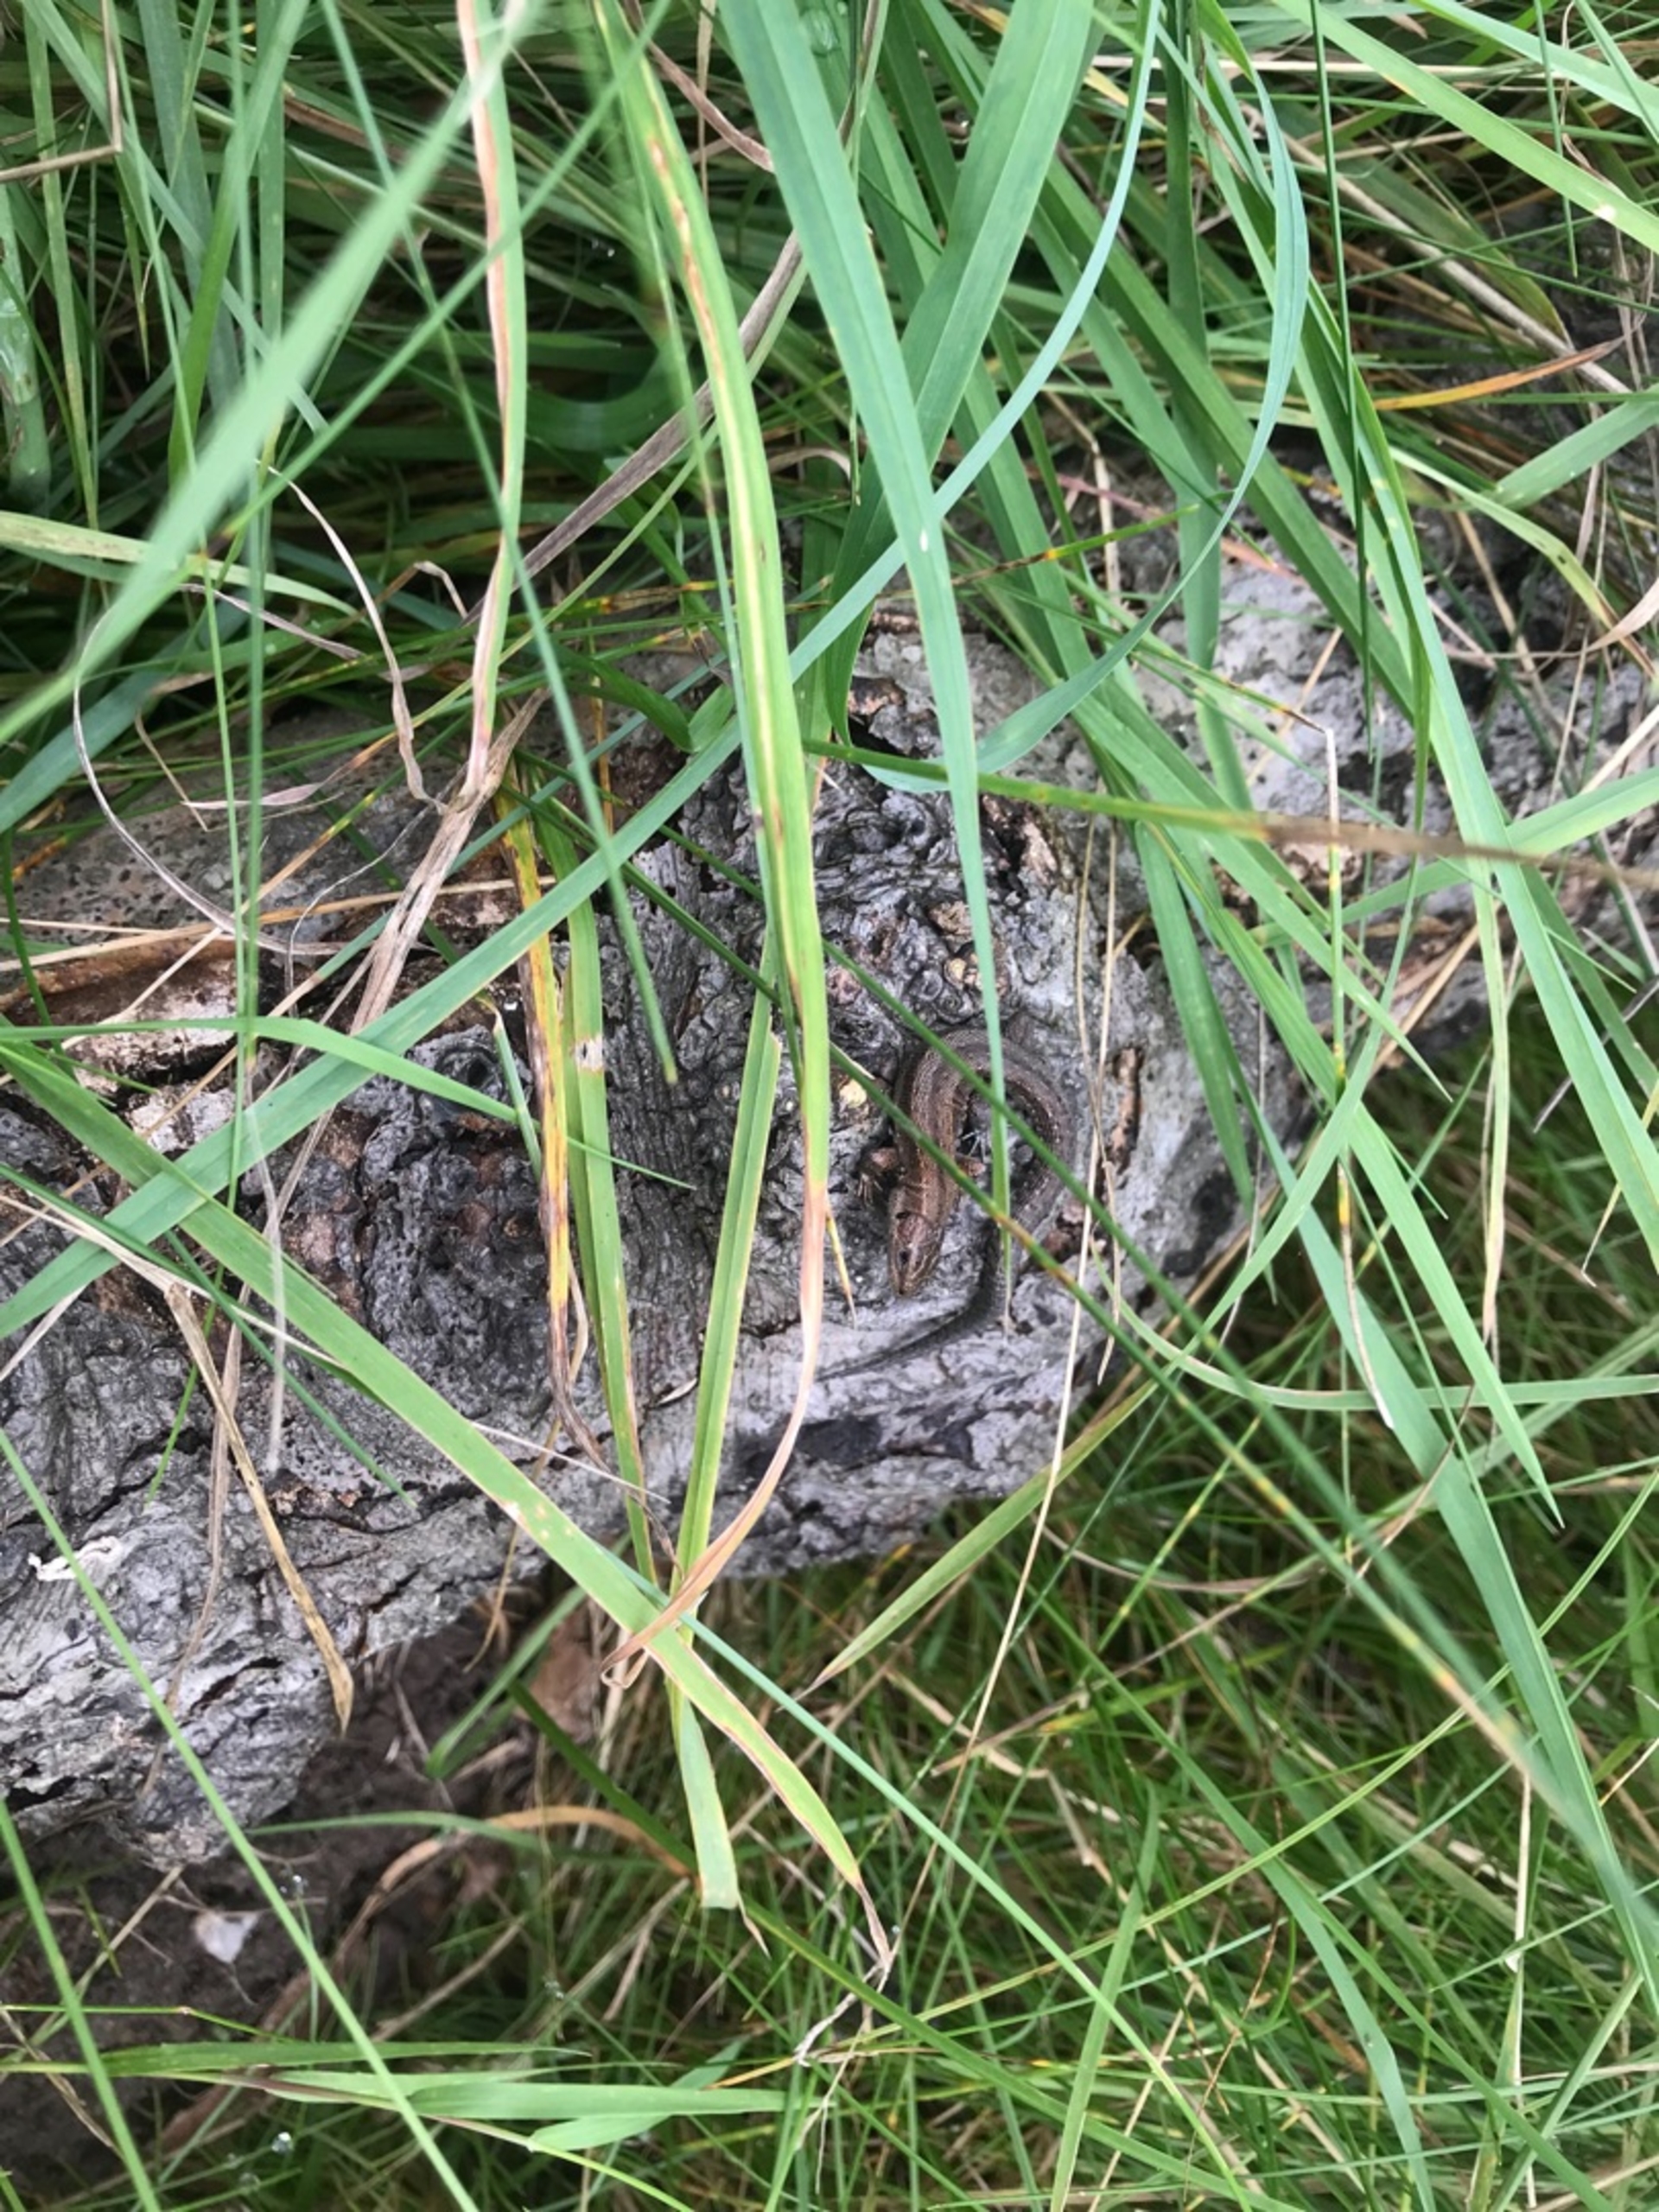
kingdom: Animalia
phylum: Chordata
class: Squamata
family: Lacertidae
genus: Zootoca
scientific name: Zootoca vivipara
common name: Skovfirben
